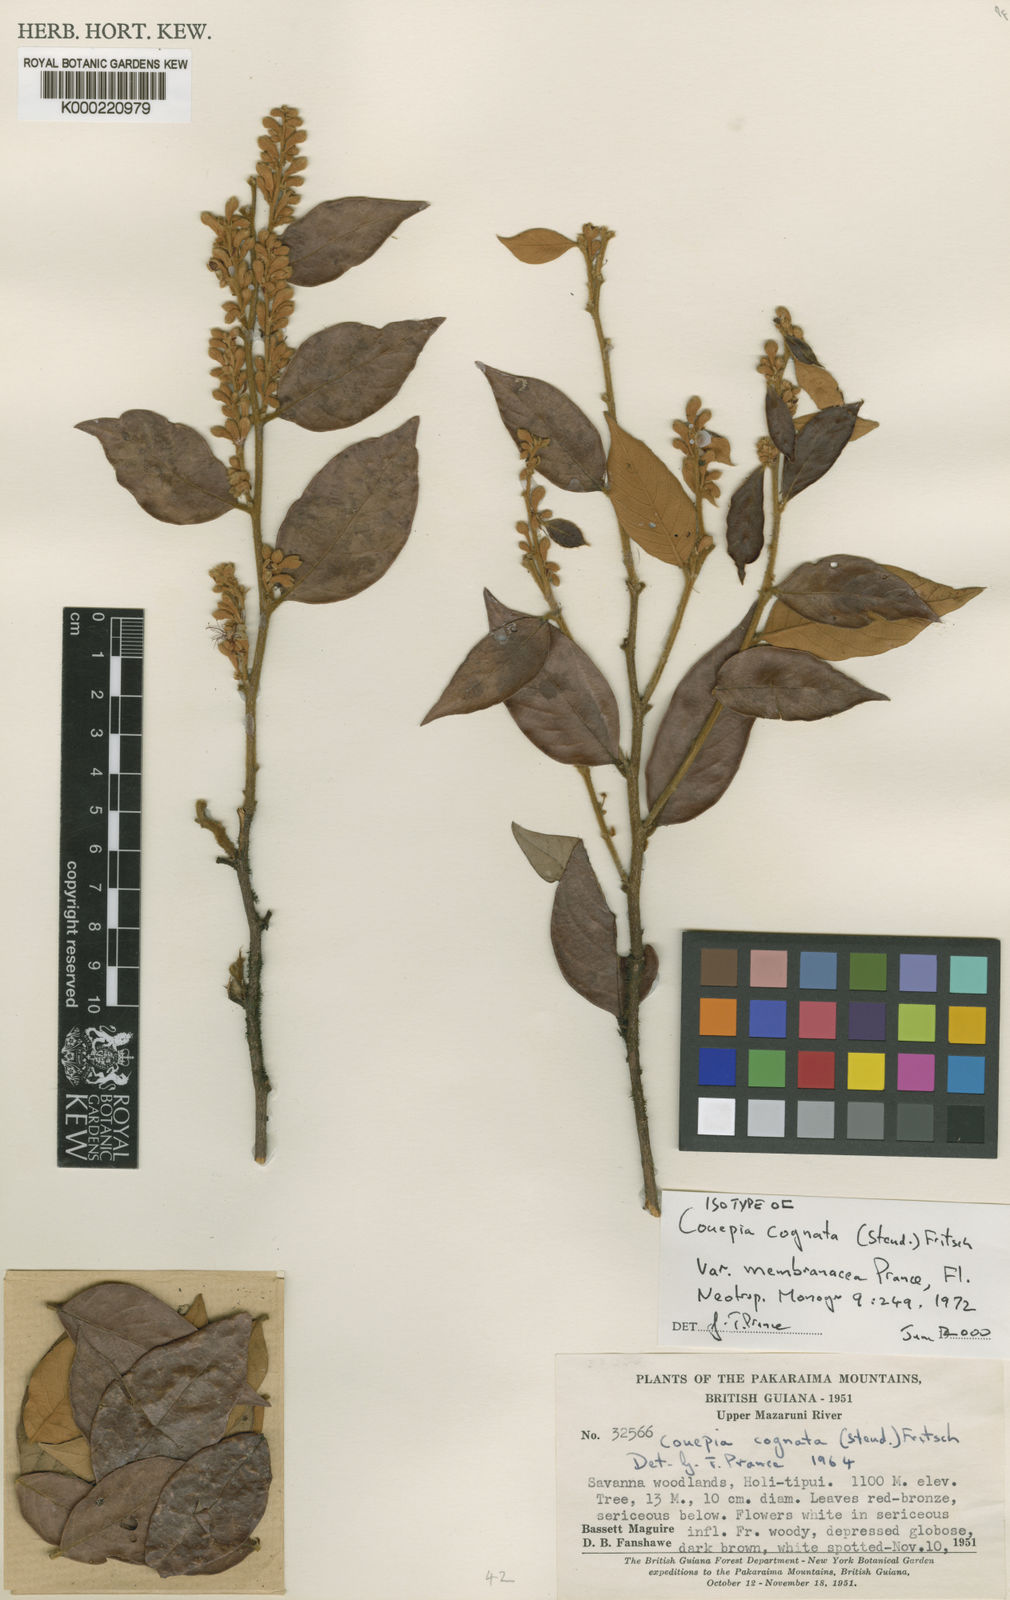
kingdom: Plantae
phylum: Tracheophyta
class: Magnoliopsida
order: Malpighiales
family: Chrysobalanaceae
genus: Gaulettia
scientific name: Gaulettia cognata
